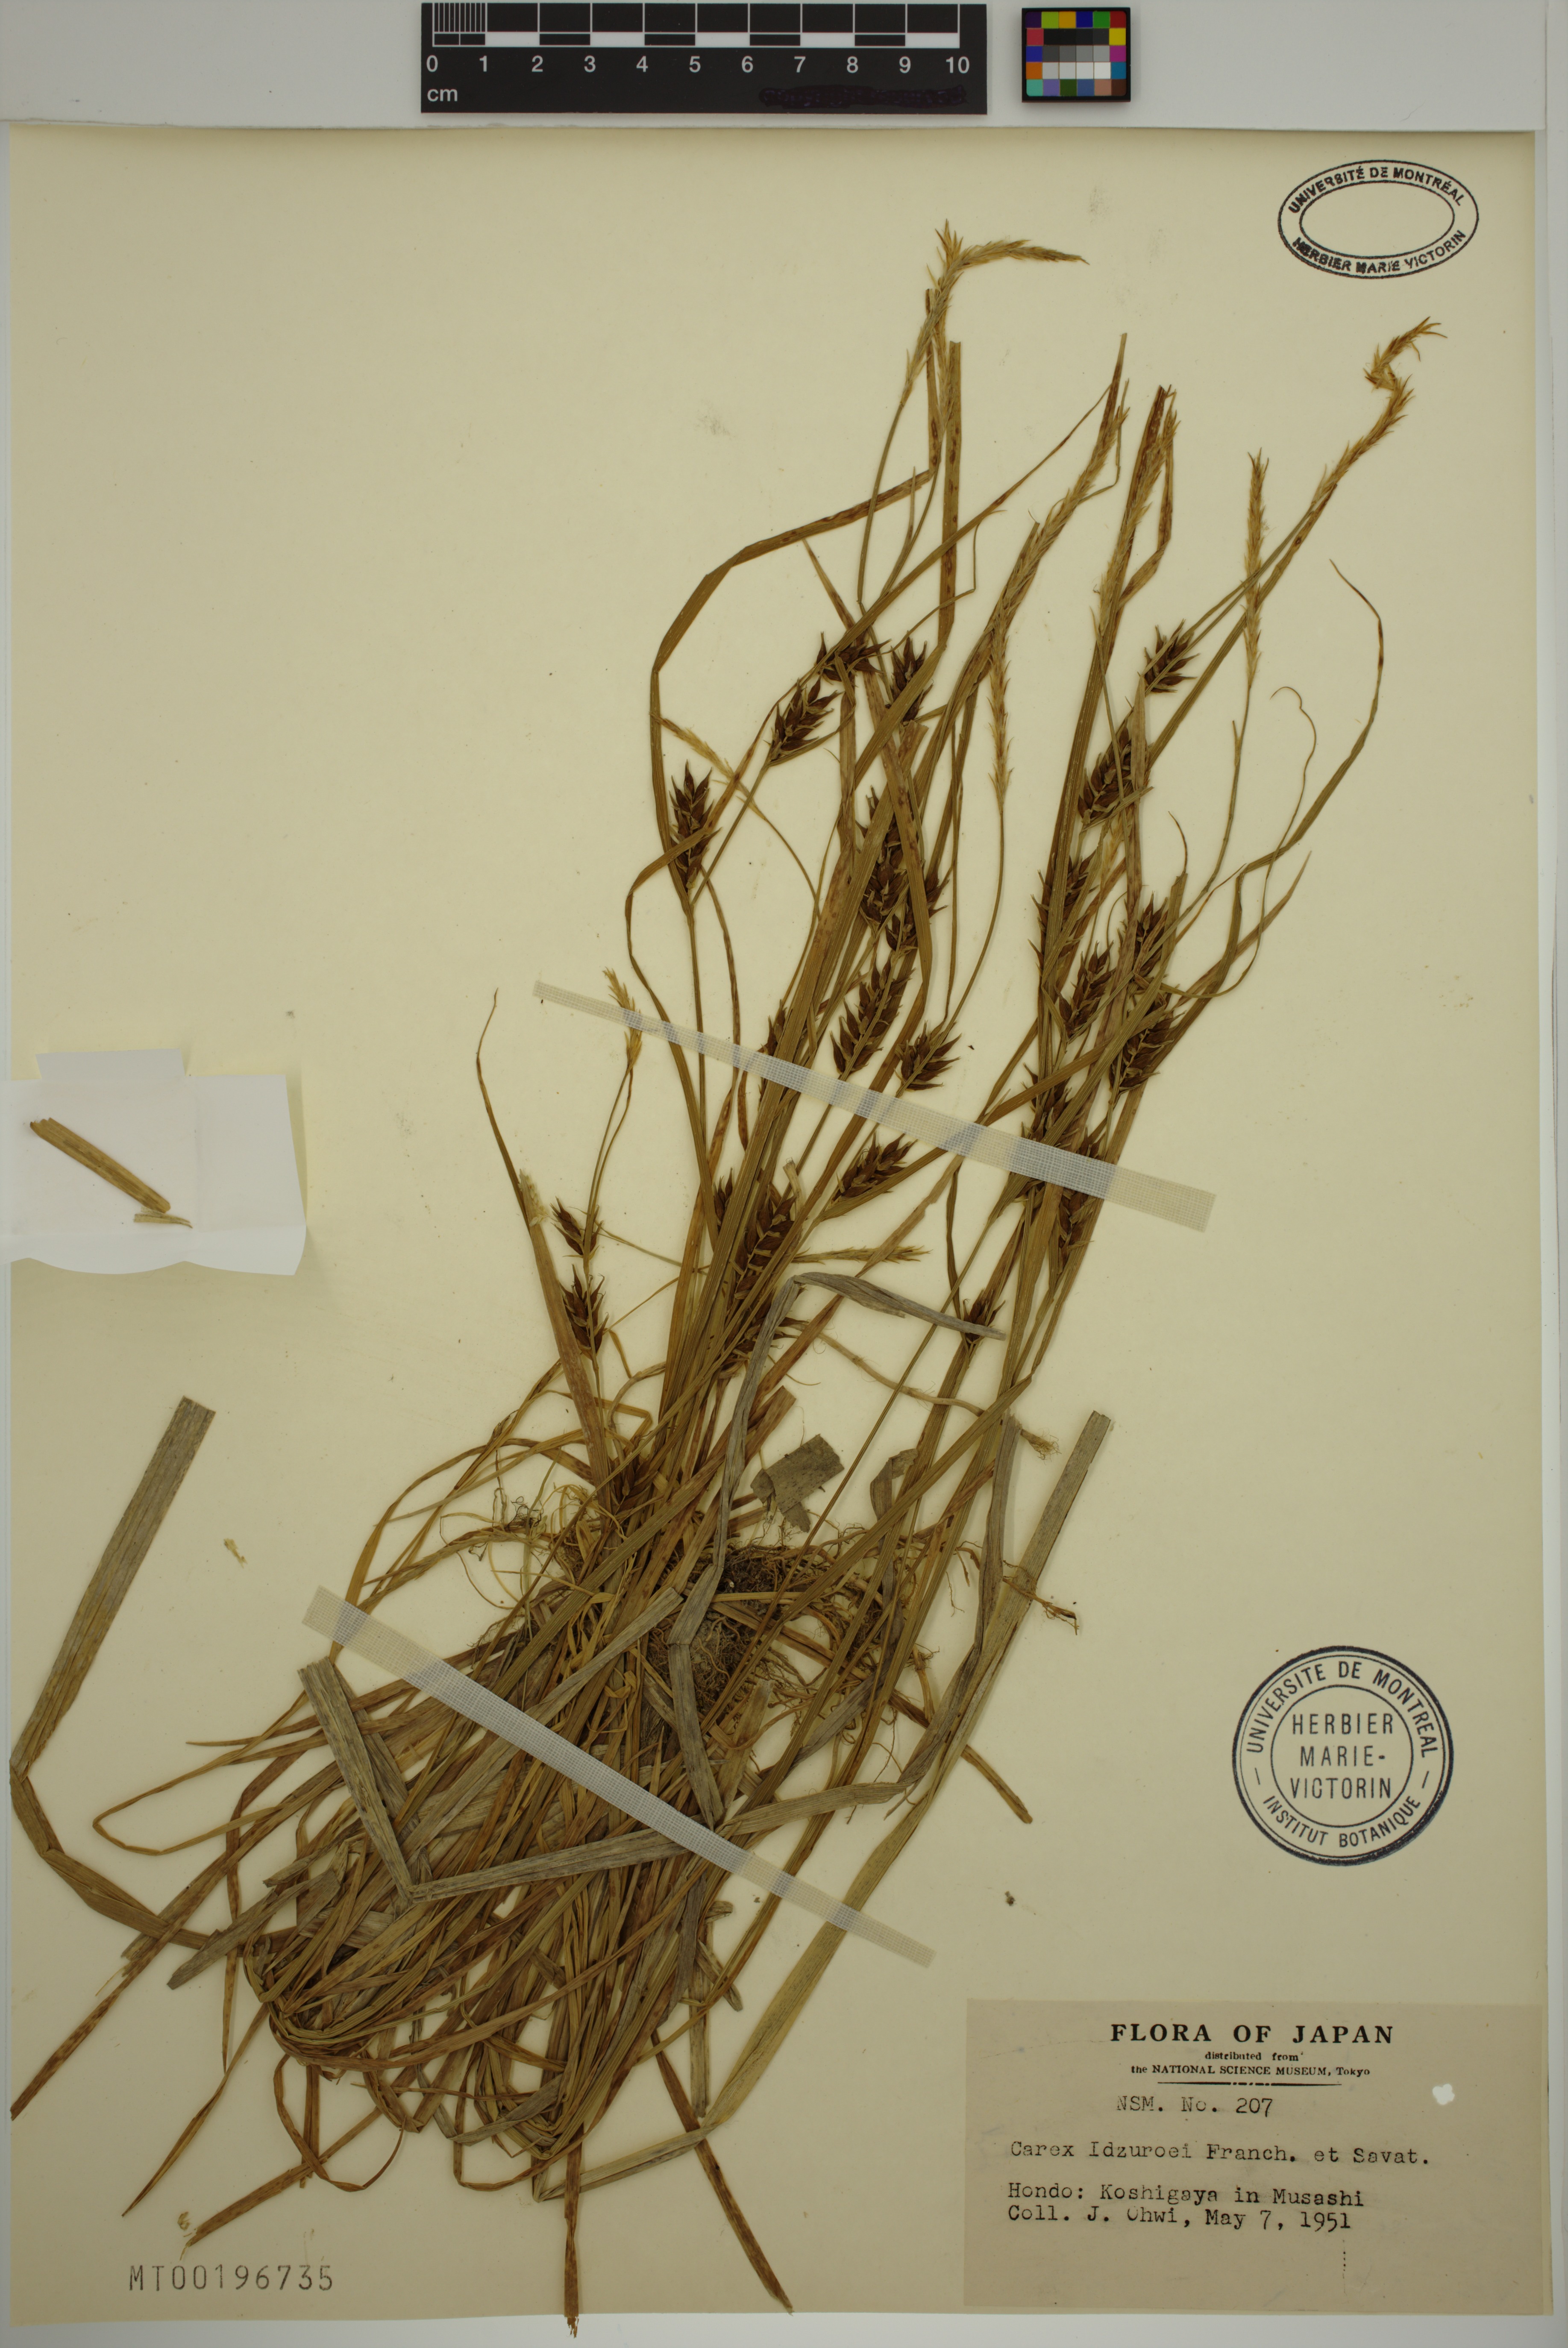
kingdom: Plantae
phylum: Tracheophyta
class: Liliopsida
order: Poales
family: Cyperaceae
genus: Carex
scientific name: Carex idzuroei
